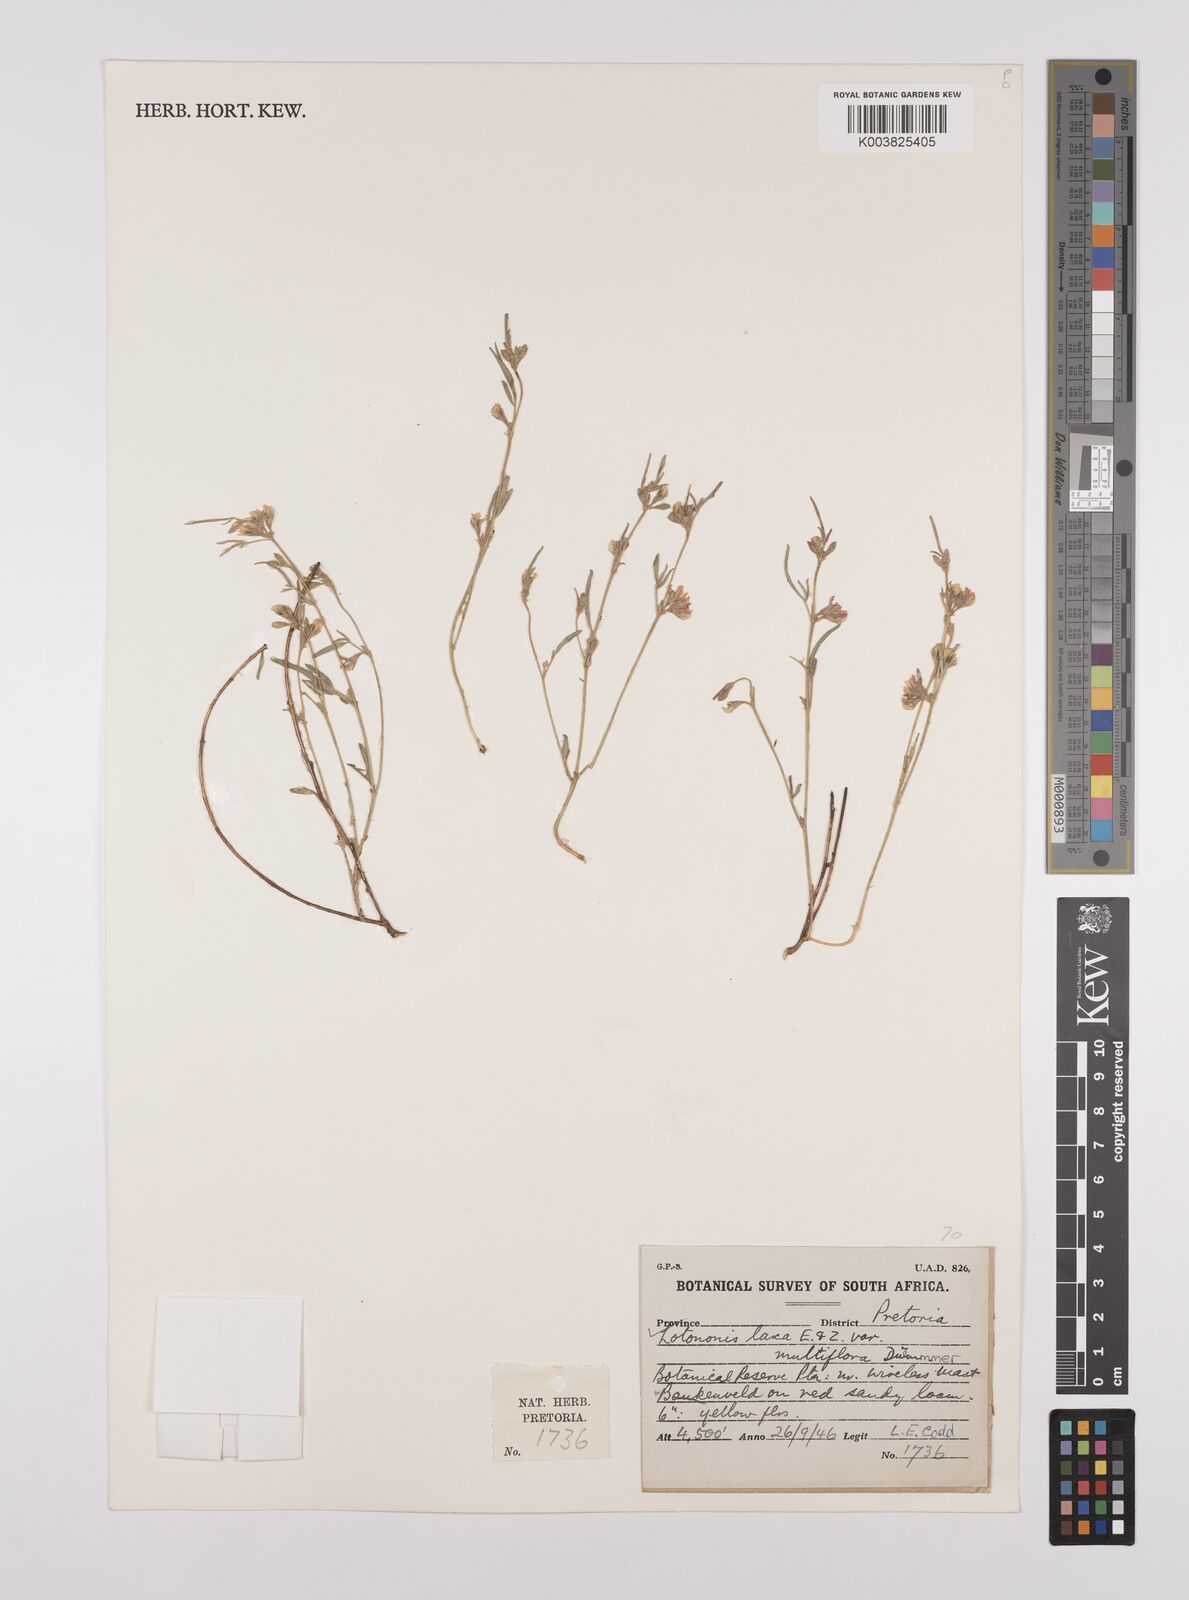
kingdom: Plantae
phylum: Tracheophyta
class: Magnoliopsida
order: Fabales
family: Fabaceae
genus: Lotononis
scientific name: Lotononis laxa
